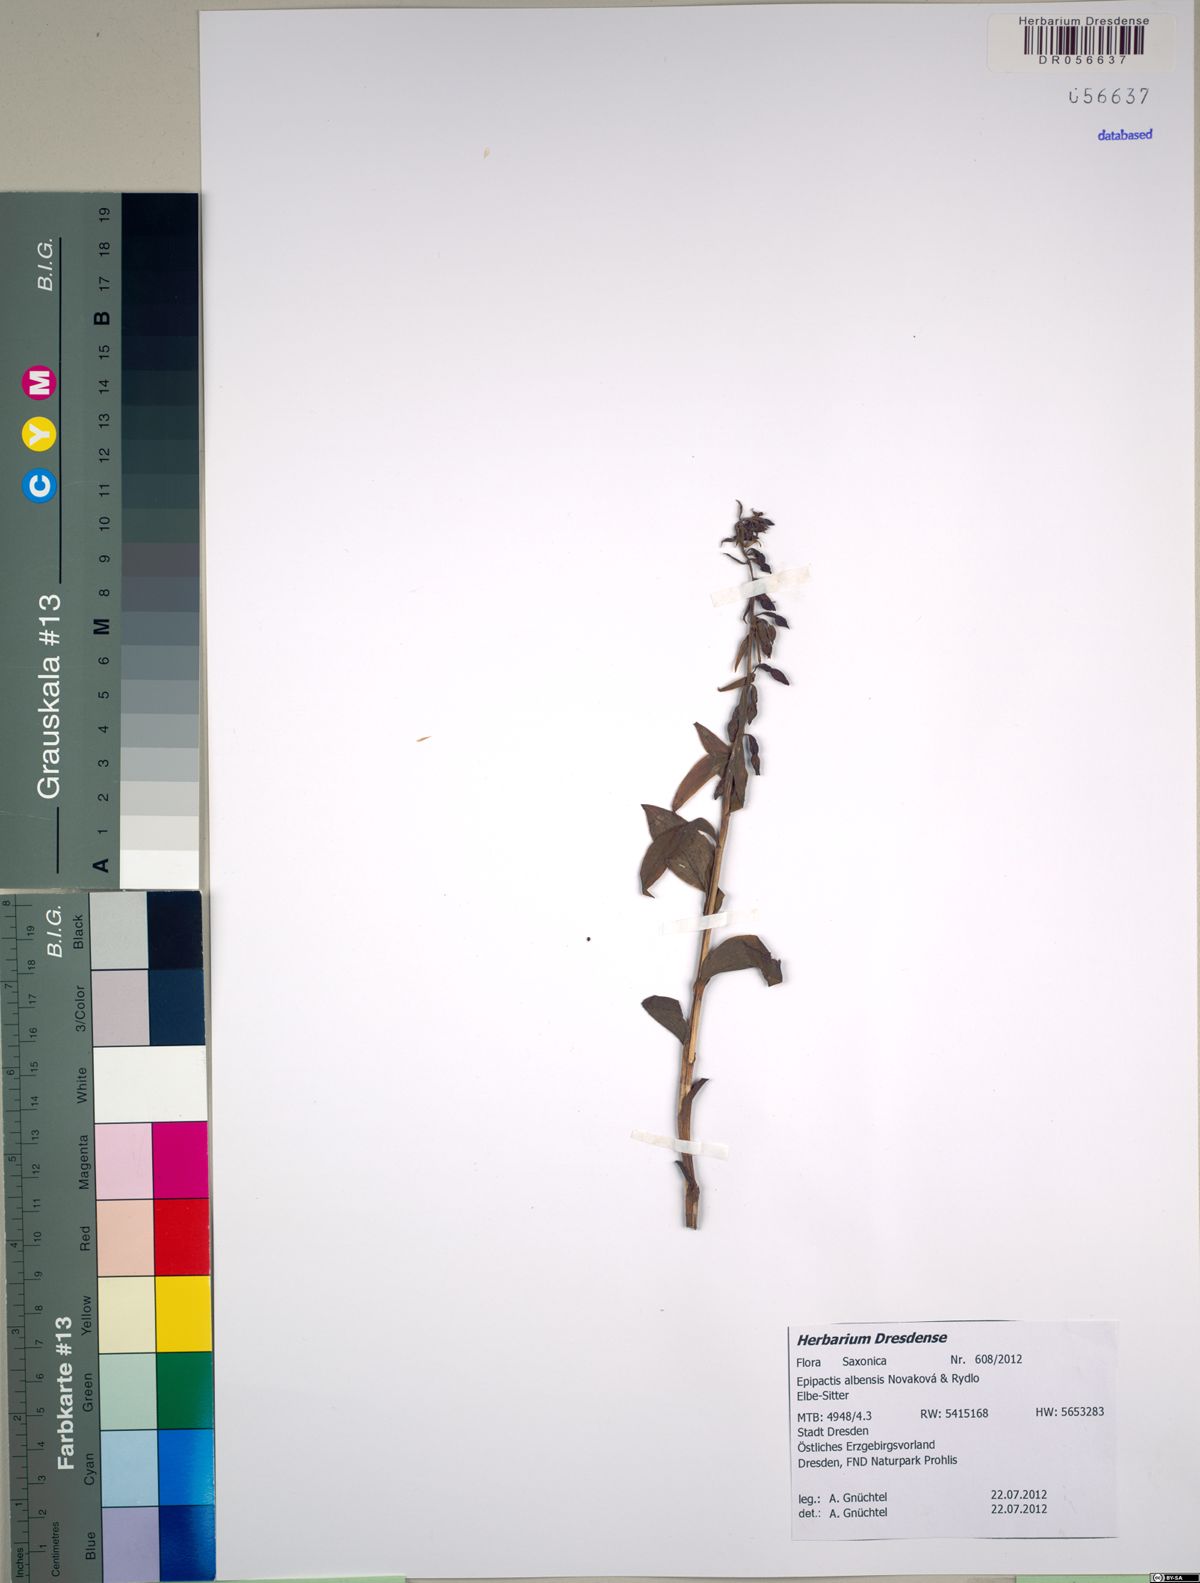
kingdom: Plantae
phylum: Tracheophyta
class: Liliopsida
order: Asparagales
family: Orchidaceae
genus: Epipactis
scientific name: Epipactis albensis
